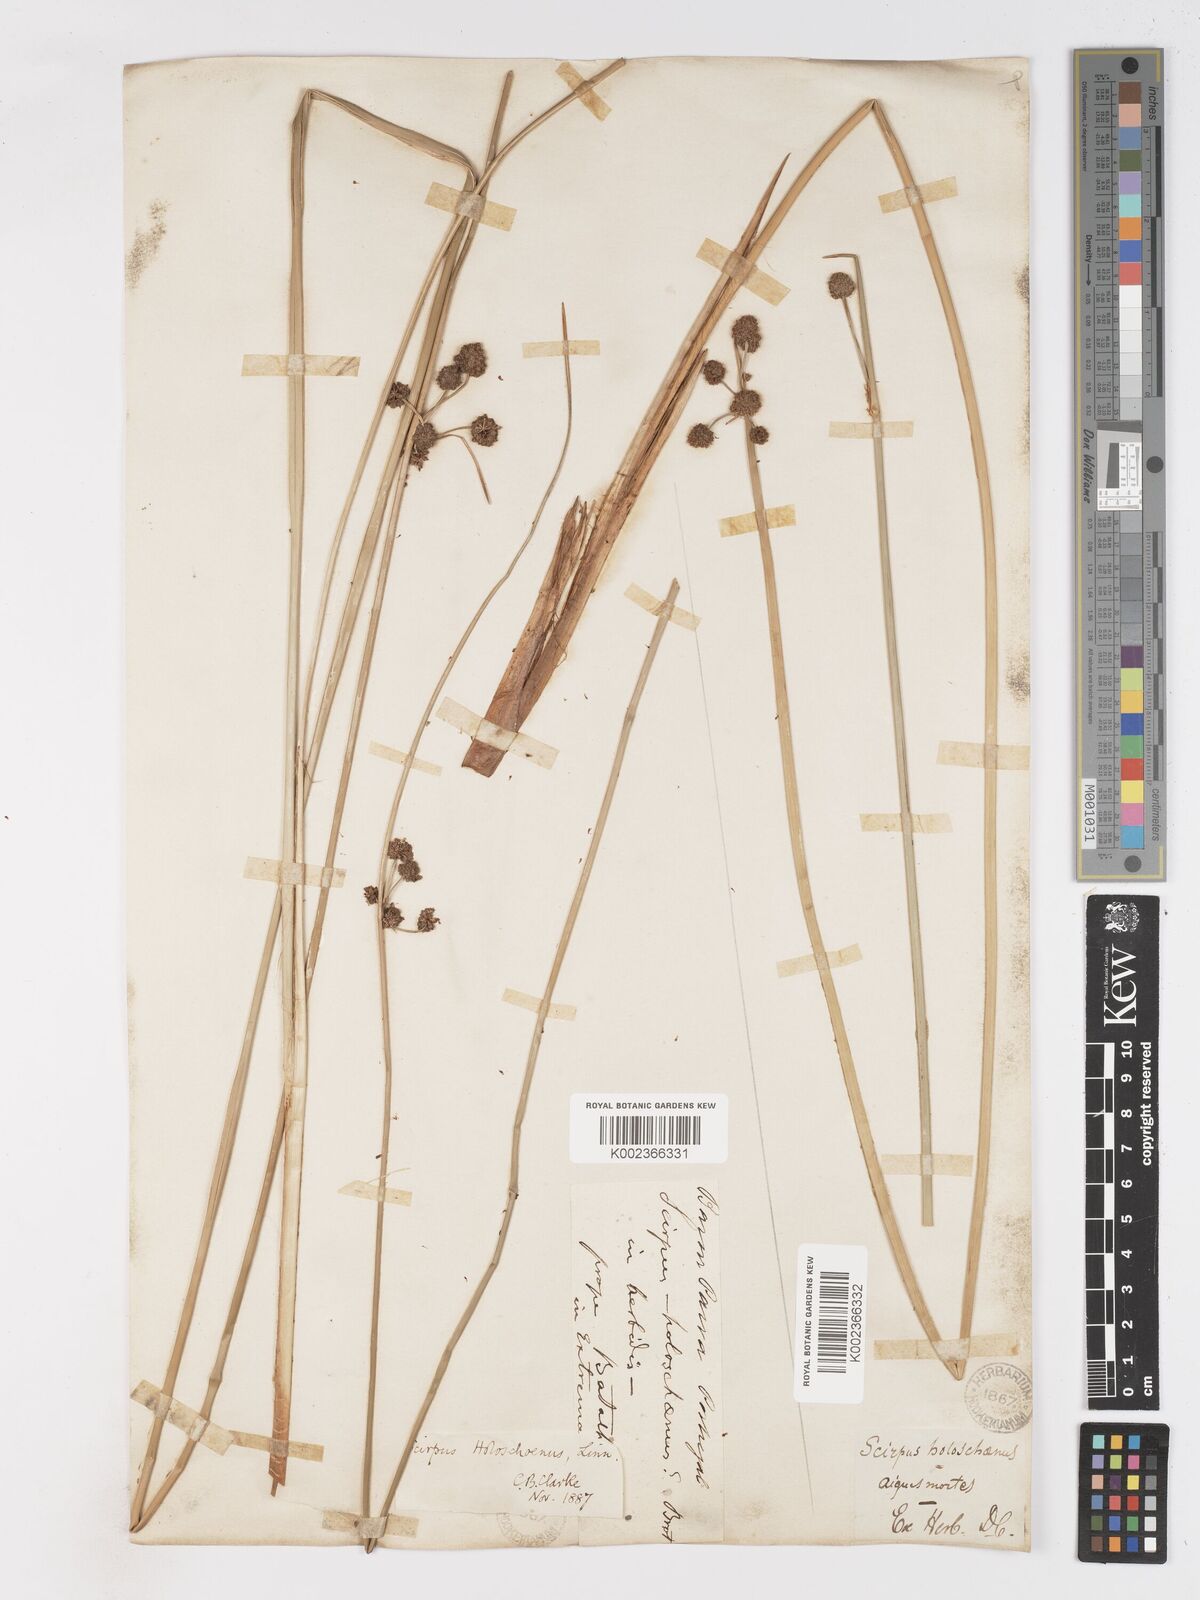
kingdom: Plantae
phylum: Tracheophyta
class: Liliopsida
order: Poales
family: Cyperaceae
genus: Scirpoides
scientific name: Scirpoides holoschoenus
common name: Round-headed club-rush
